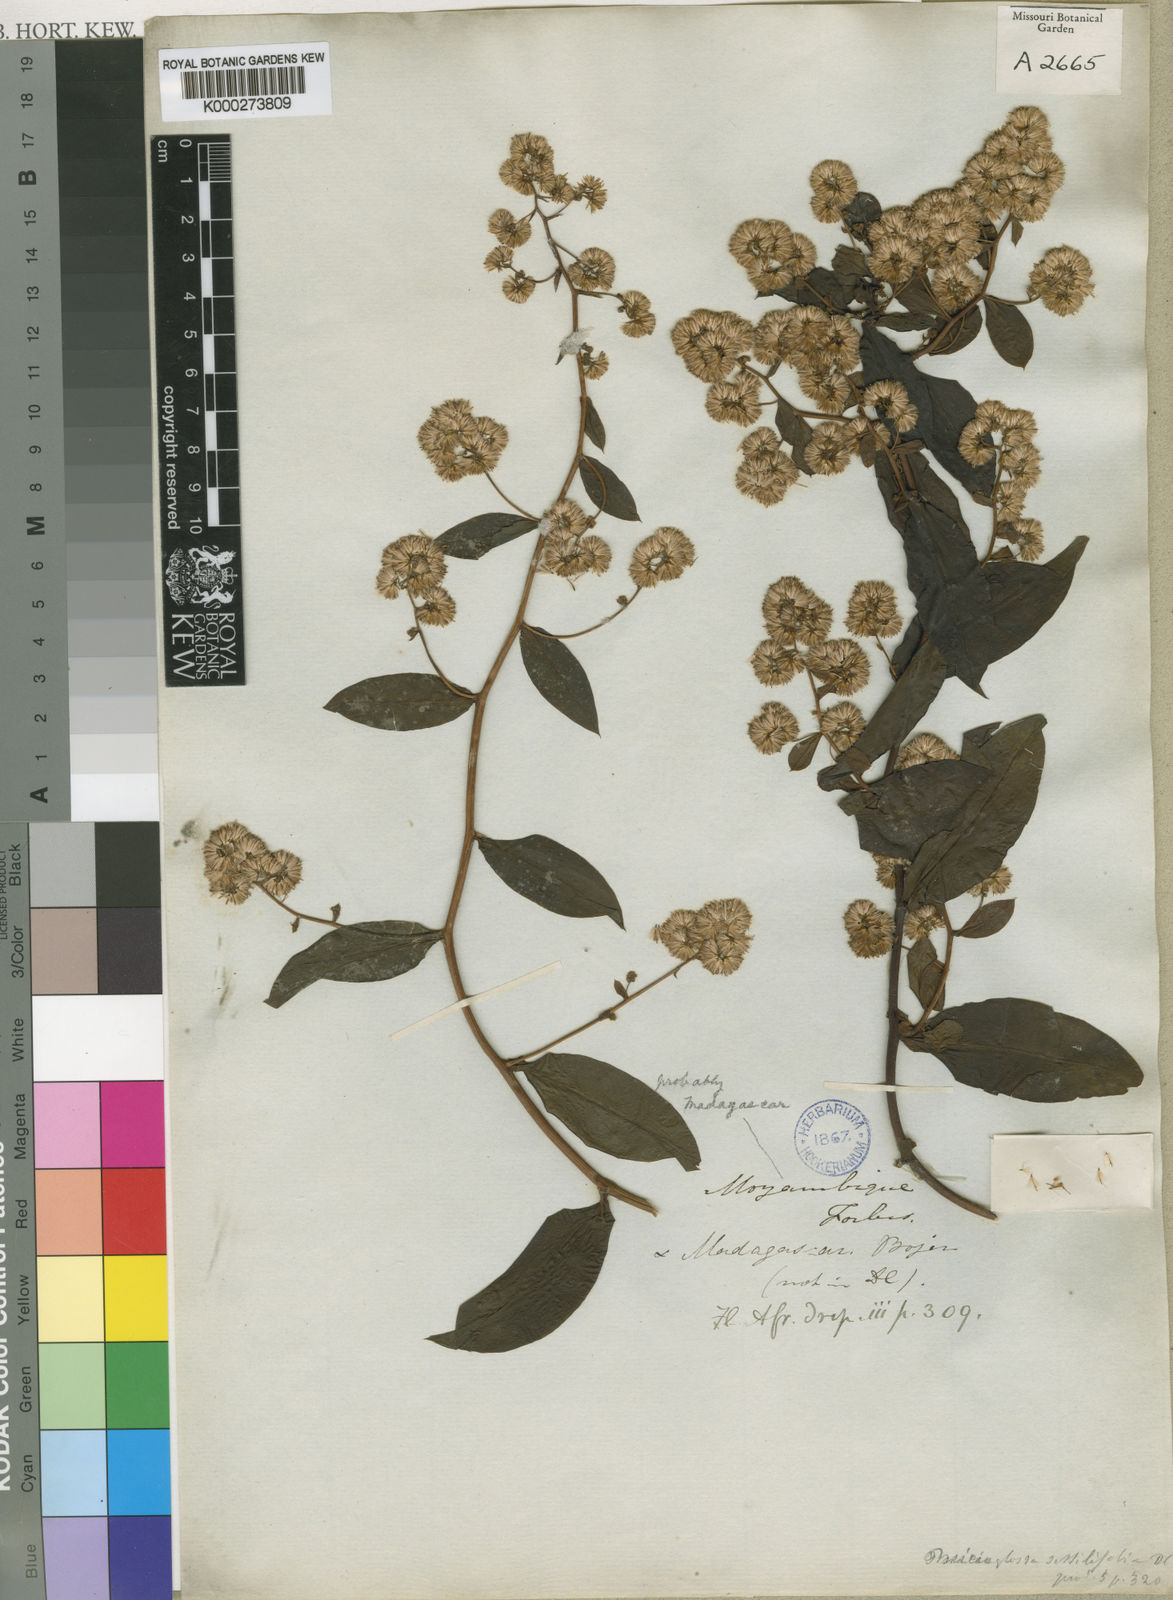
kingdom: Plantae
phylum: Tracheophyta
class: Magnoliopsida
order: Asterales
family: Asteraceae
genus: Psiadia
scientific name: Psiadia lucida
